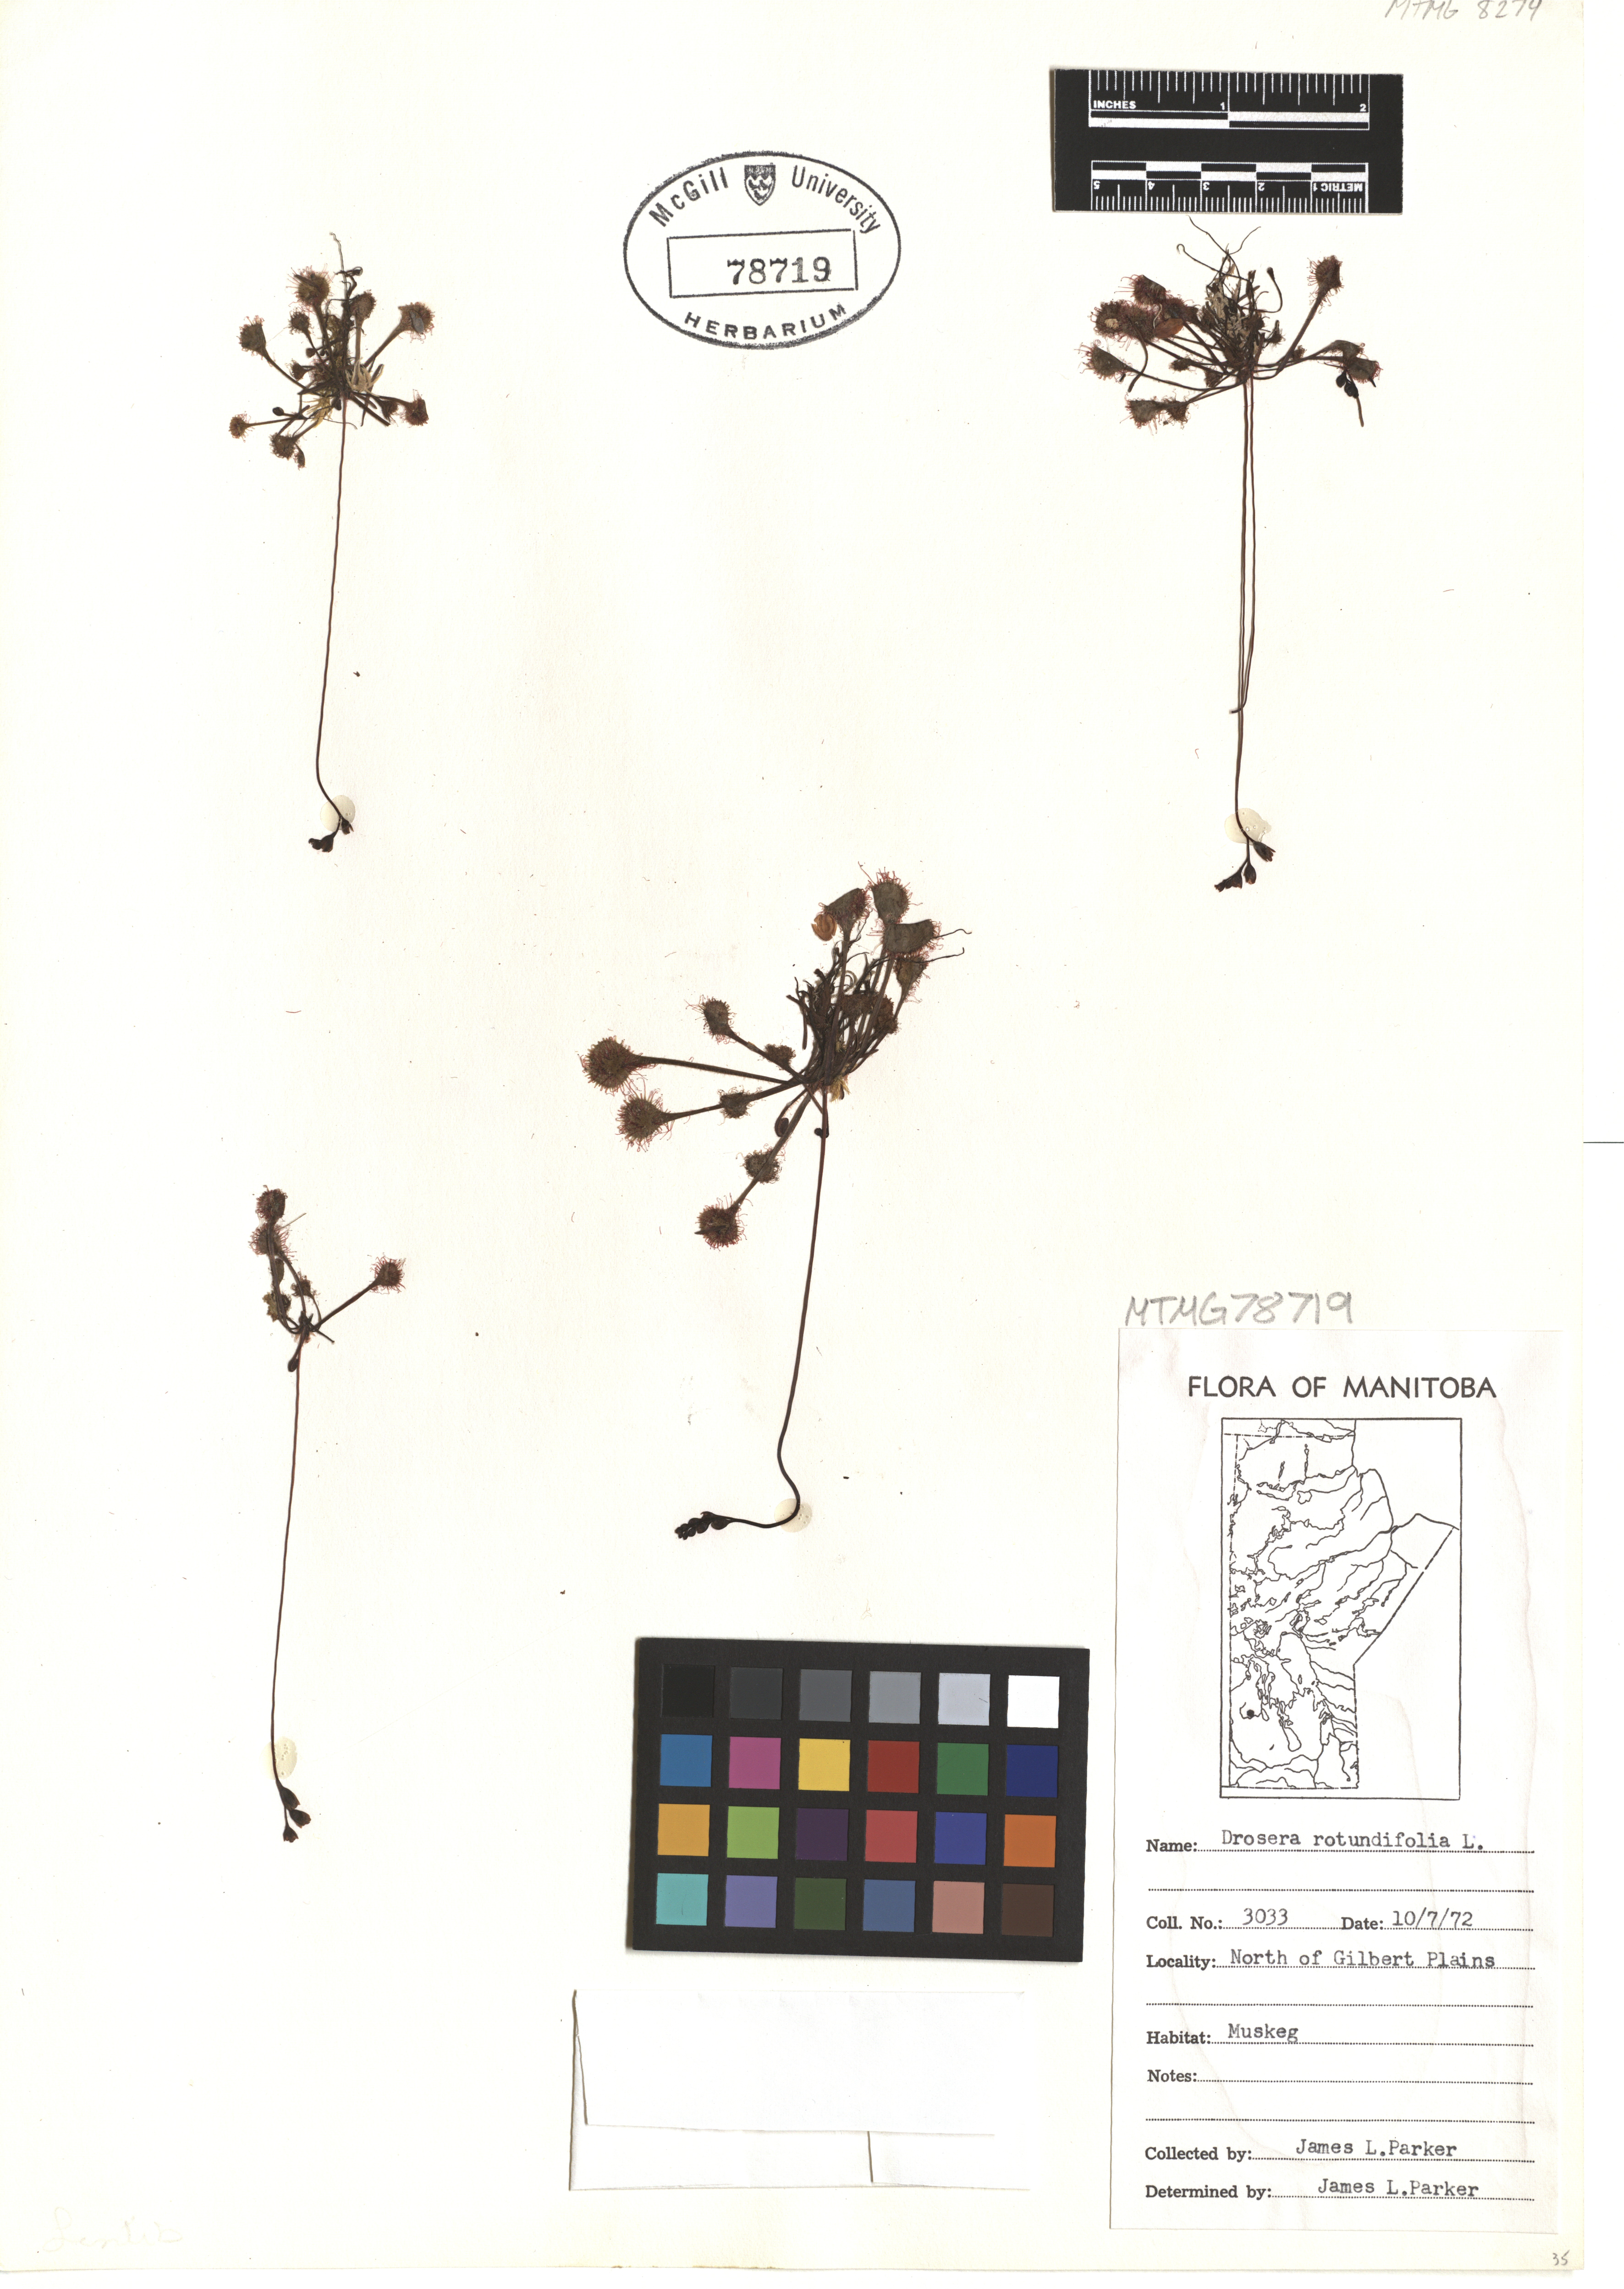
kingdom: Plantae
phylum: Tracheophyta
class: Magnoliopsida
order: Caryophyllales
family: Droseraceae
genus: Drosera
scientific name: Drosera rotundifolia
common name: Round-leaved sundew
